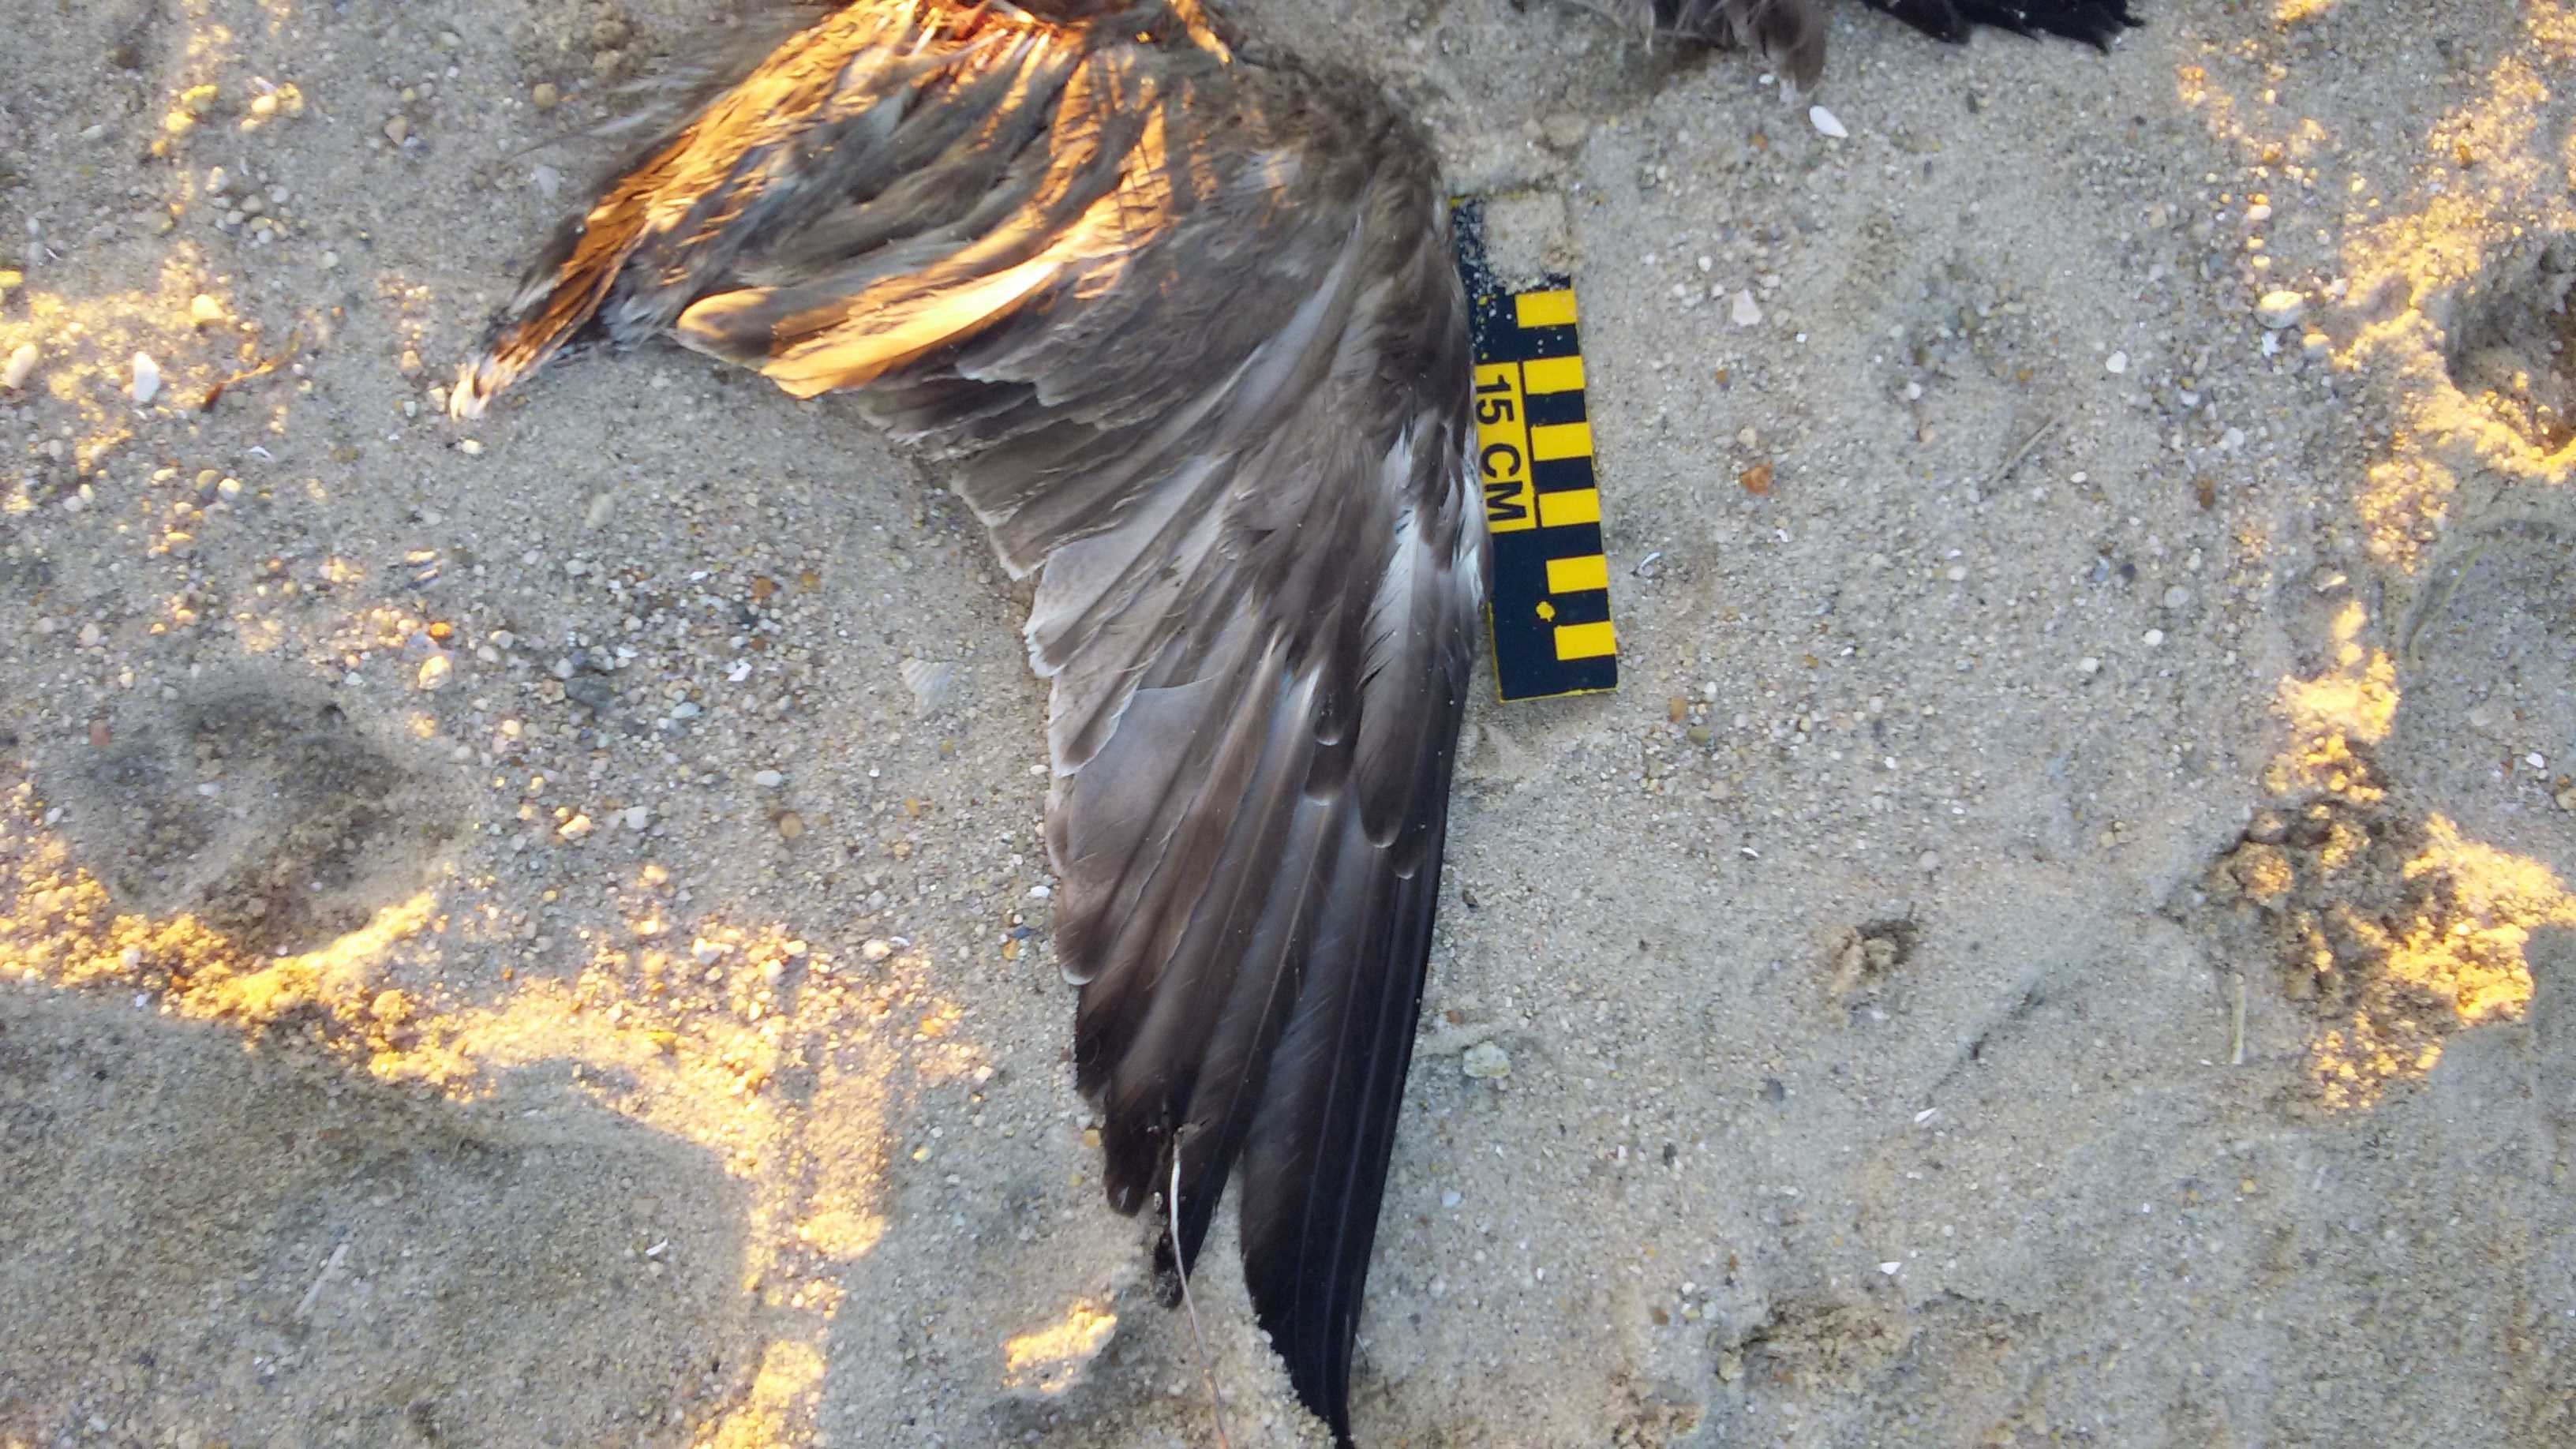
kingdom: Animalia
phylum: Chordata
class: Aves
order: Charadriiformes
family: Laridae
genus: Larus
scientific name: Larus delawarensis
